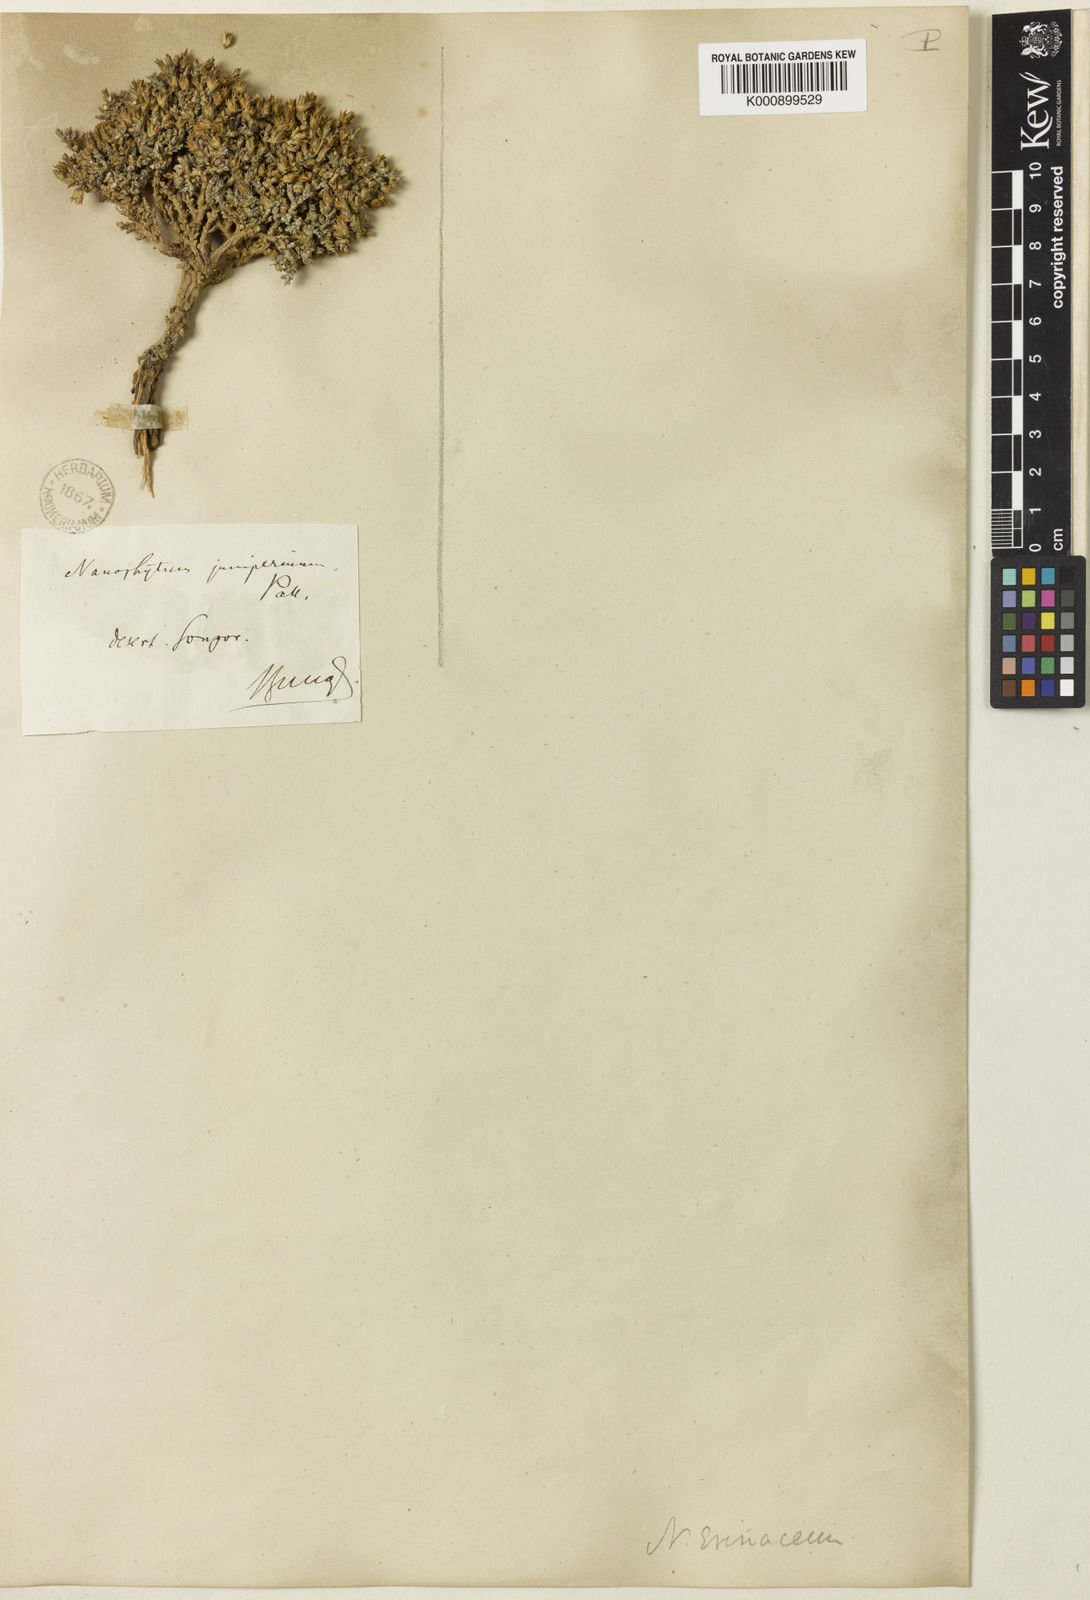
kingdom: Plantae
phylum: Tracheophyta
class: Magnoliopsida
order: Caryophyllales
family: Amaranthaceae
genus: Nanophyton
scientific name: Nanophyton erinaceum
